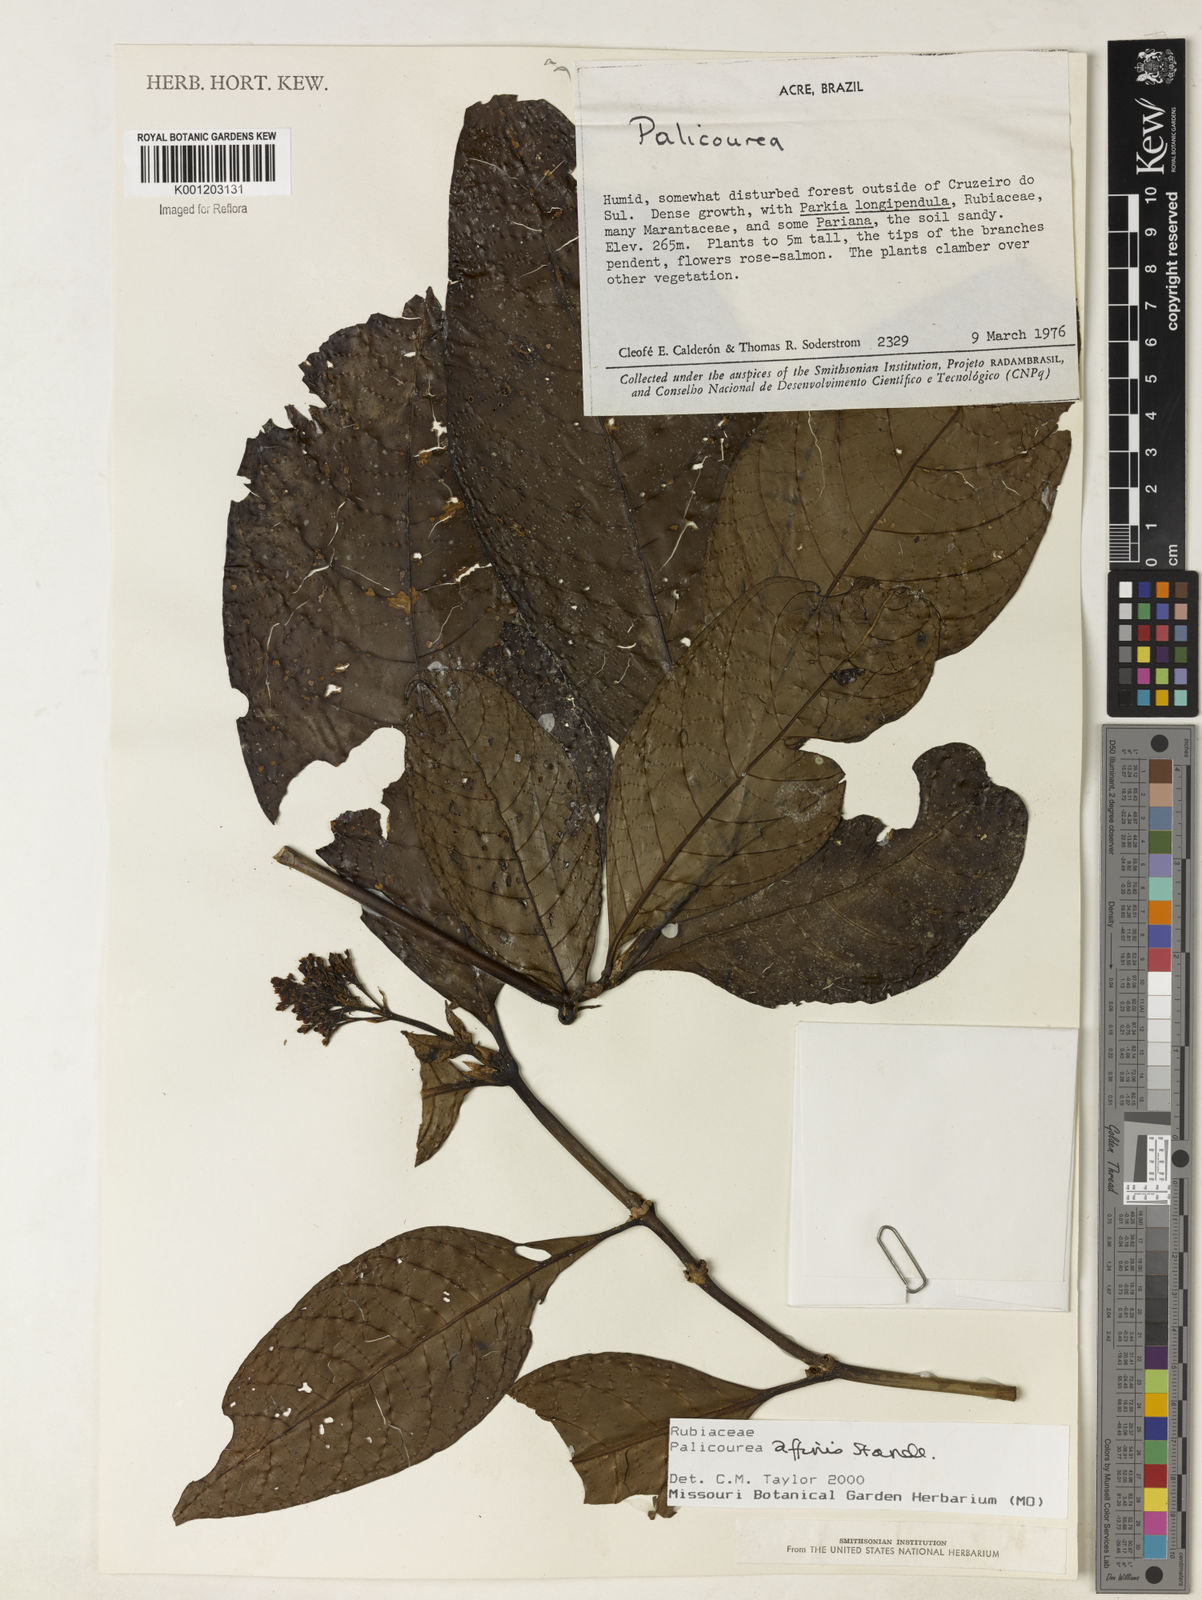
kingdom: Plantae
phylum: Tracheophyta
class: Magnoliopsida
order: Gentianales
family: Rubiaceae
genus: Palicourea
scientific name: Palicourea affinis
